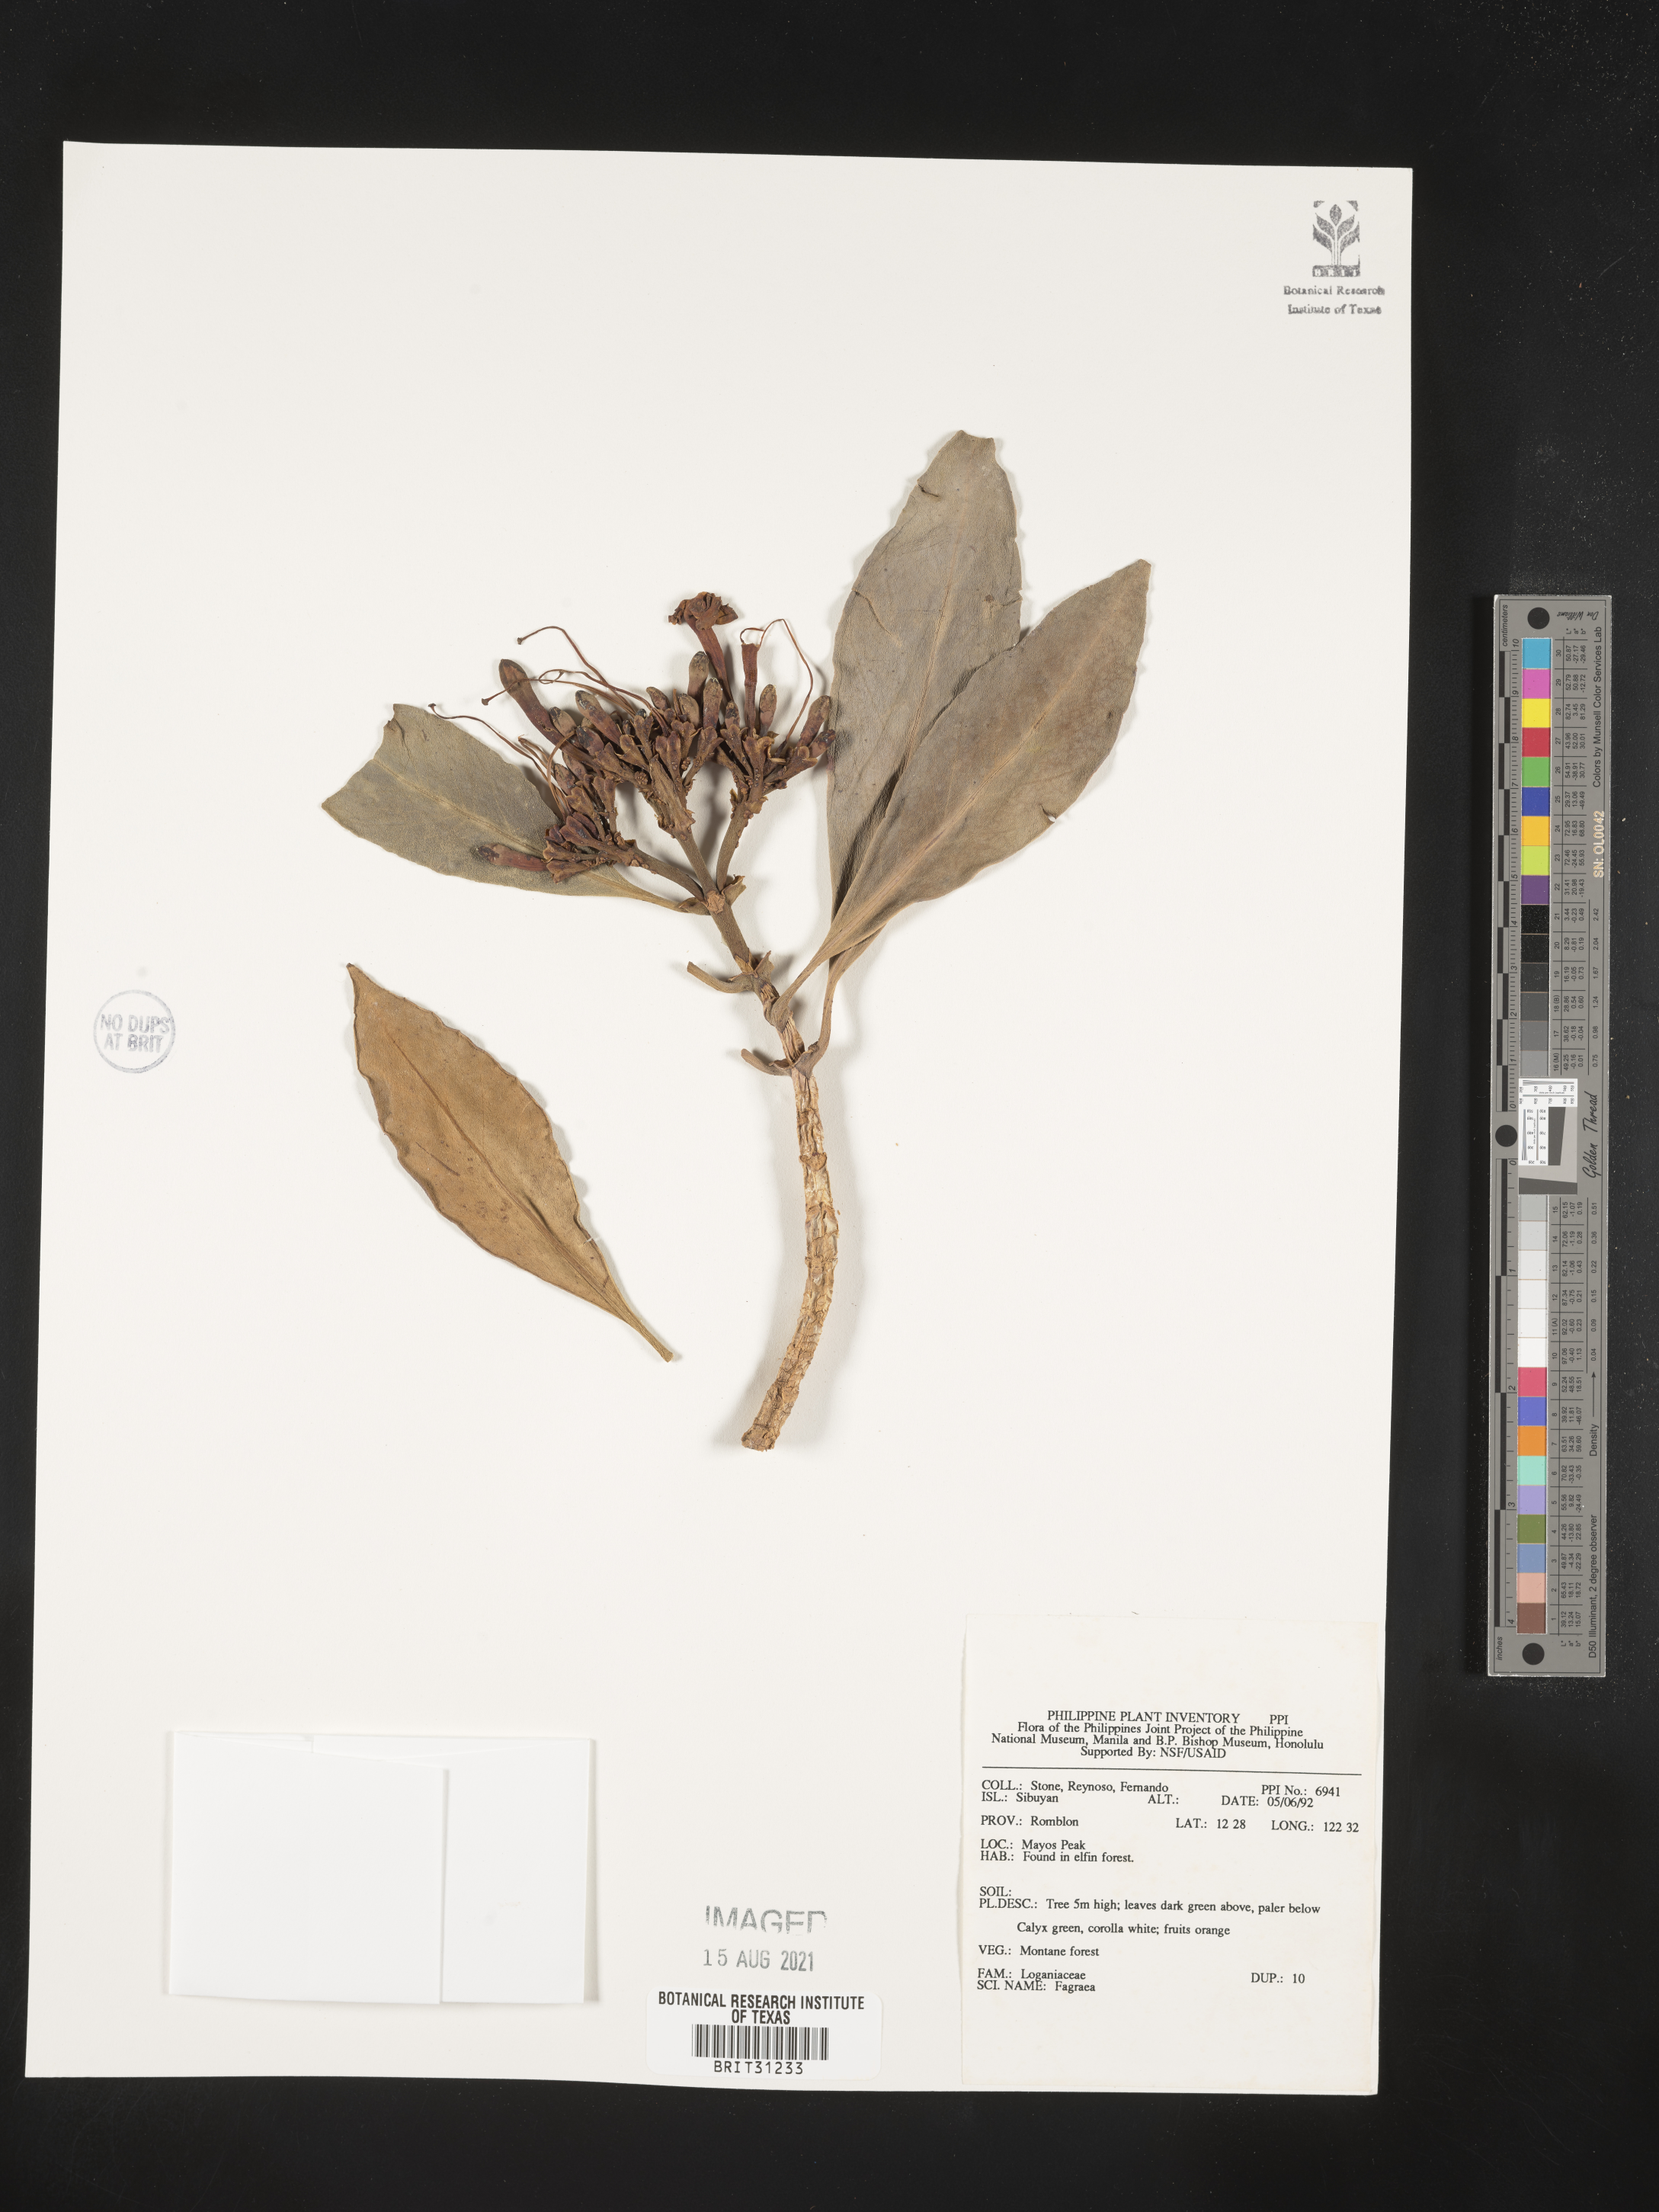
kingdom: Plantae
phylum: Tracheophyta
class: Magnoliopsida
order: Gentianales
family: Gentianaceae
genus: Fagraea
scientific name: Fagraea
